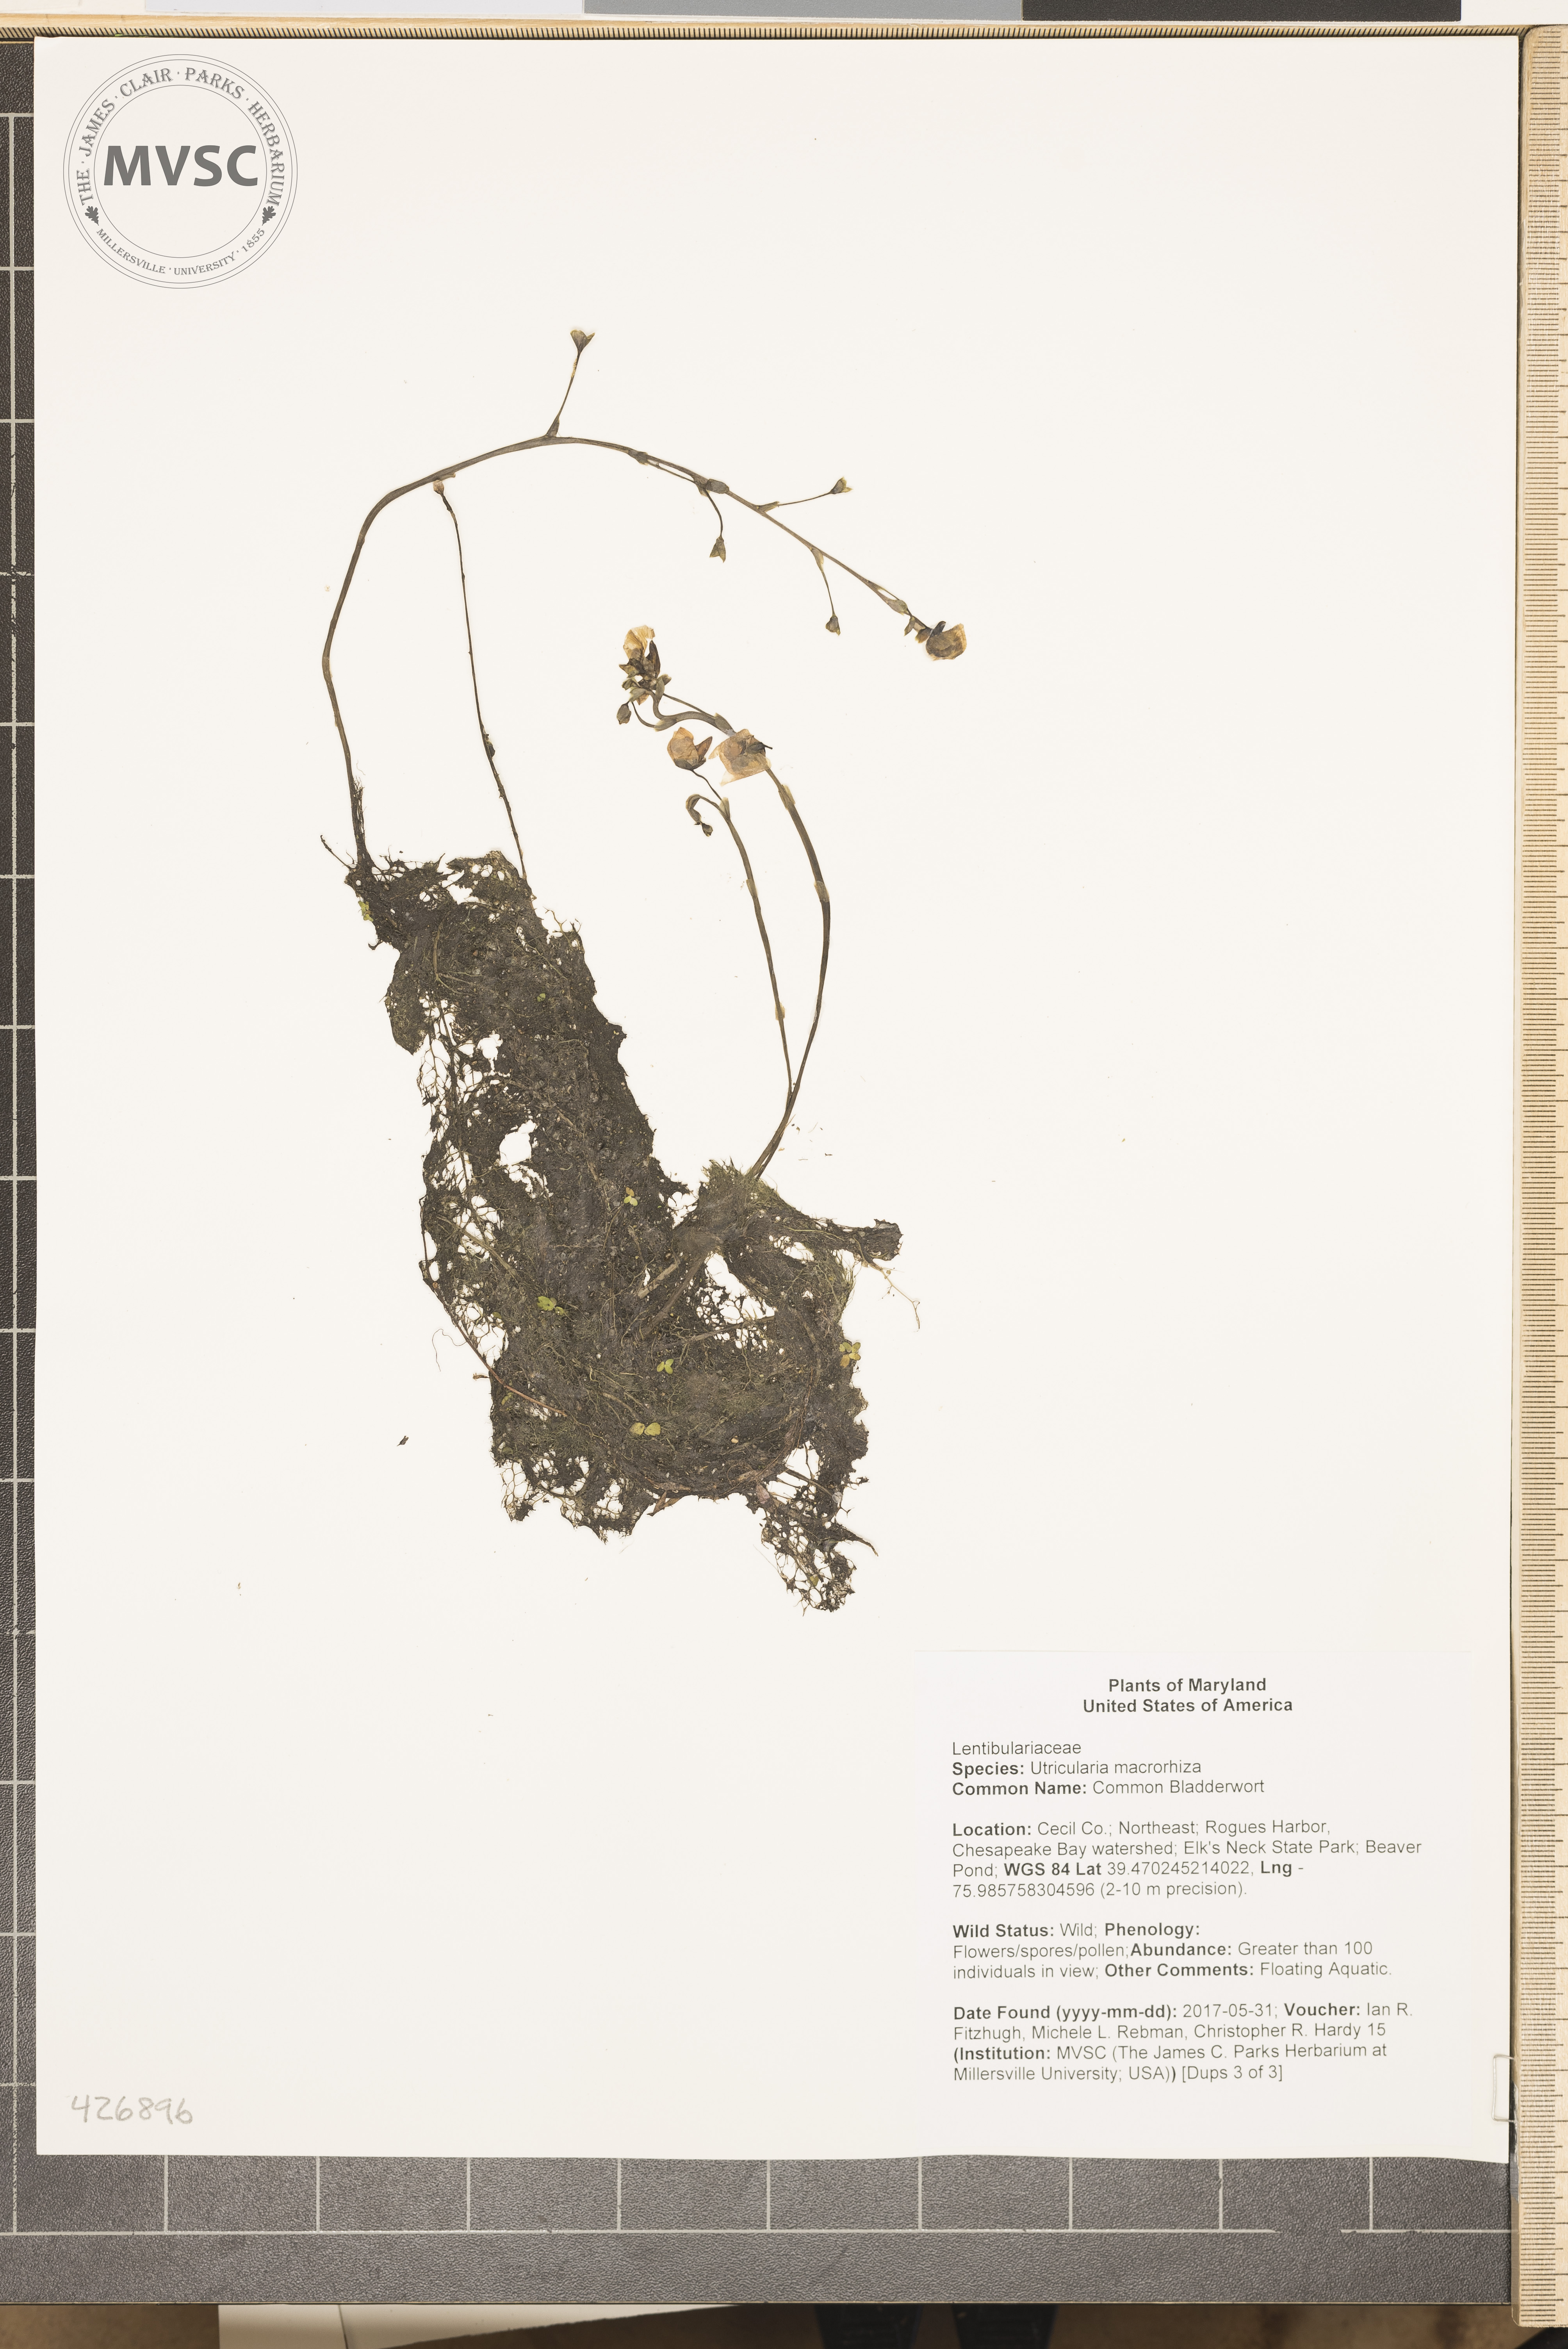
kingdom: Plantae
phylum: Tracheophyta
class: Magnoliopsida
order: Lamiales
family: Lentibulariaceae
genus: Utricularia
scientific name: Utricularia macrorhiza
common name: Common Bladderwort
